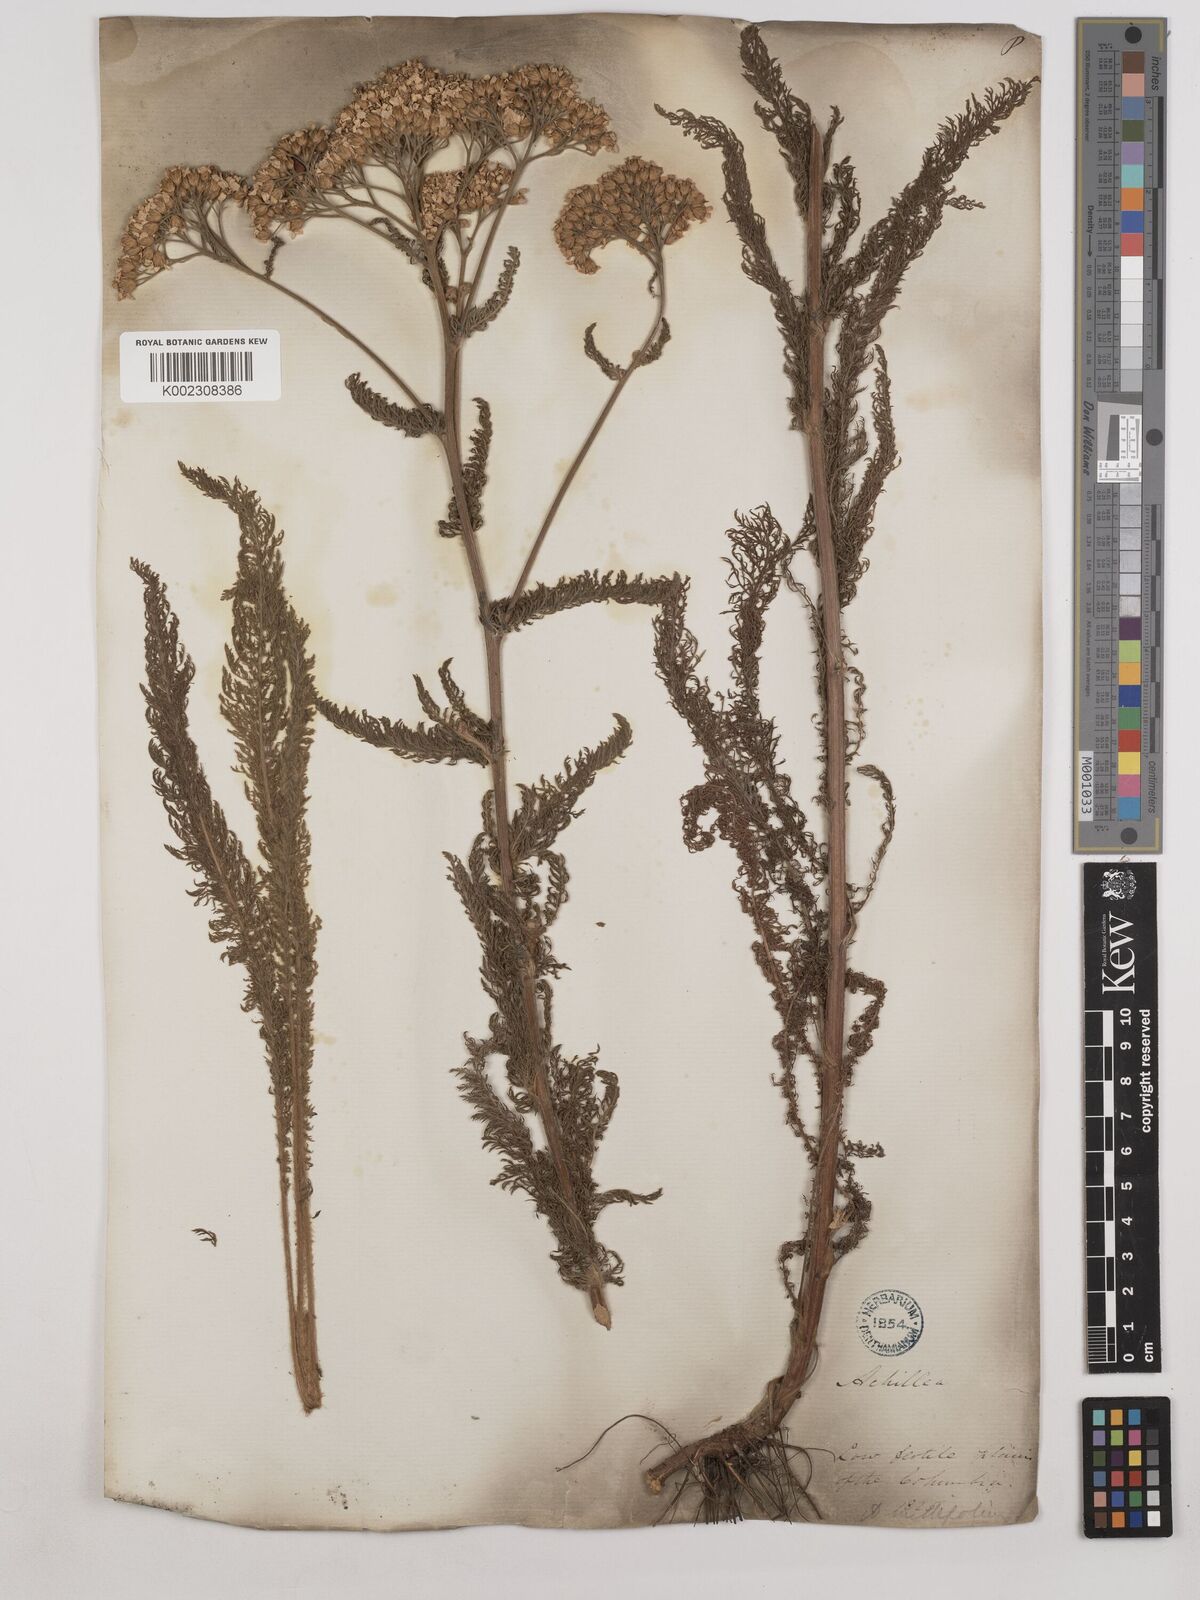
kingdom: Plantae
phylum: Tracheophyta
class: Magnoliopsida
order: Asterales
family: Asteraceae
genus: Achillea
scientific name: Achillea millefolium
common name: Yarrow
